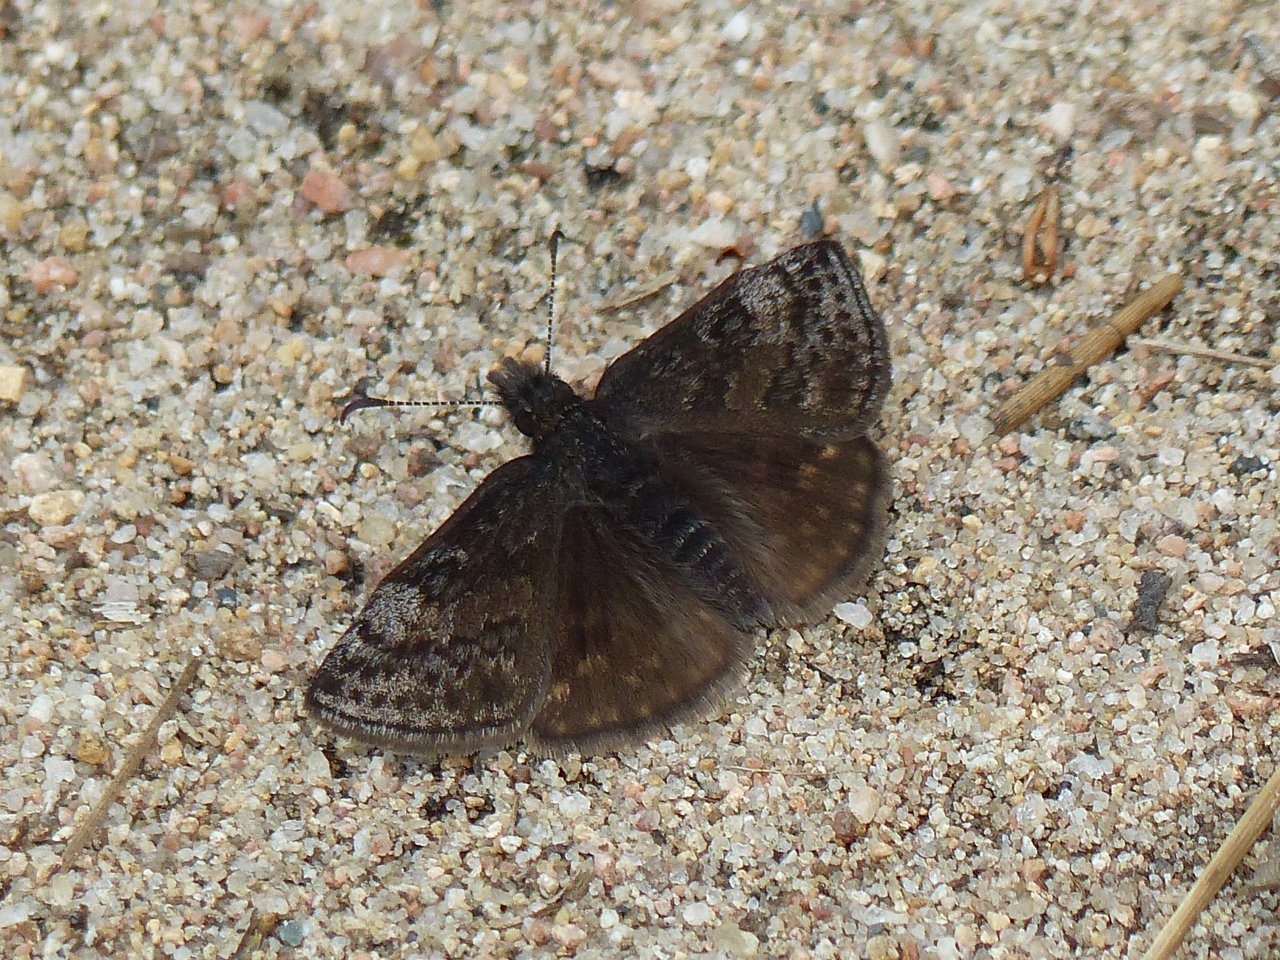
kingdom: Animalia
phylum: Arthropoda
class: Insecta
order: Lepidoptera
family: Hesperiidae
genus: Erynnis
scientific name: Erynnis icelus
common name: Dreamy Duskywing
